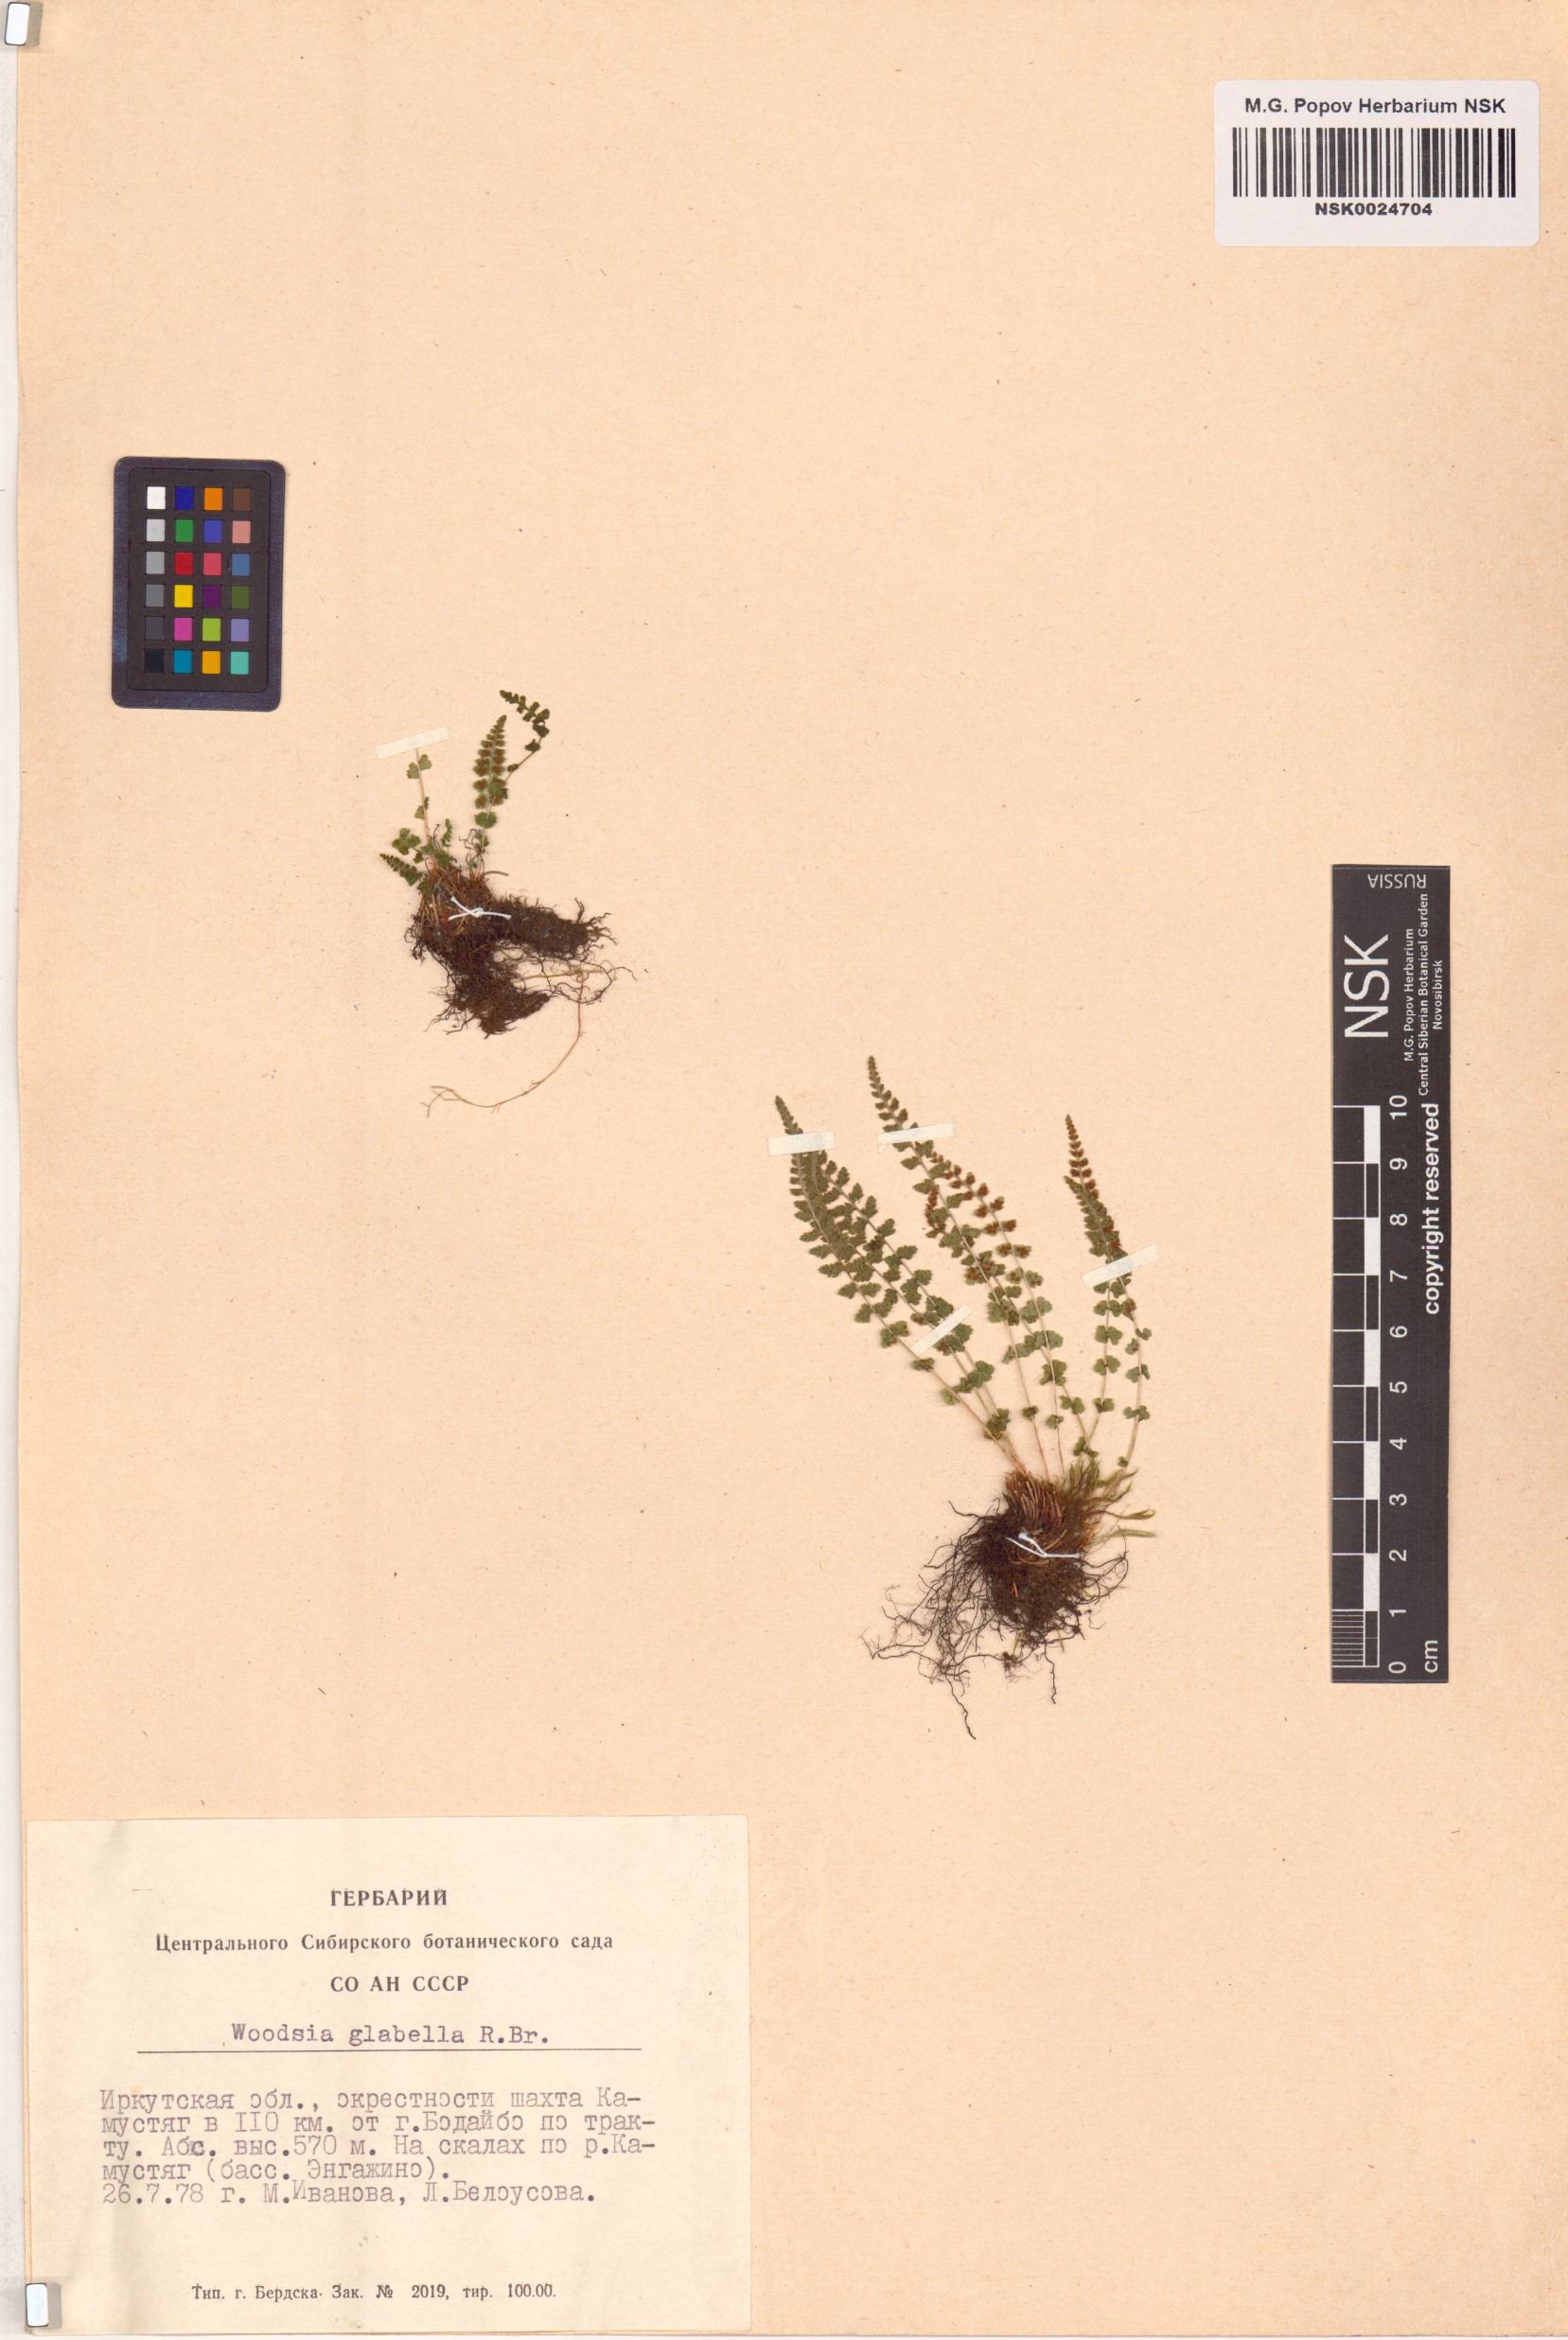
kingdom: Plantae
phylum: Tracheophyta
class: Polypodiopsida
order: Polypodiales
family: Woodsiaceae
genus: Woodsia
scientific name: Woodsia glabella
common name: Smooth woodsia
